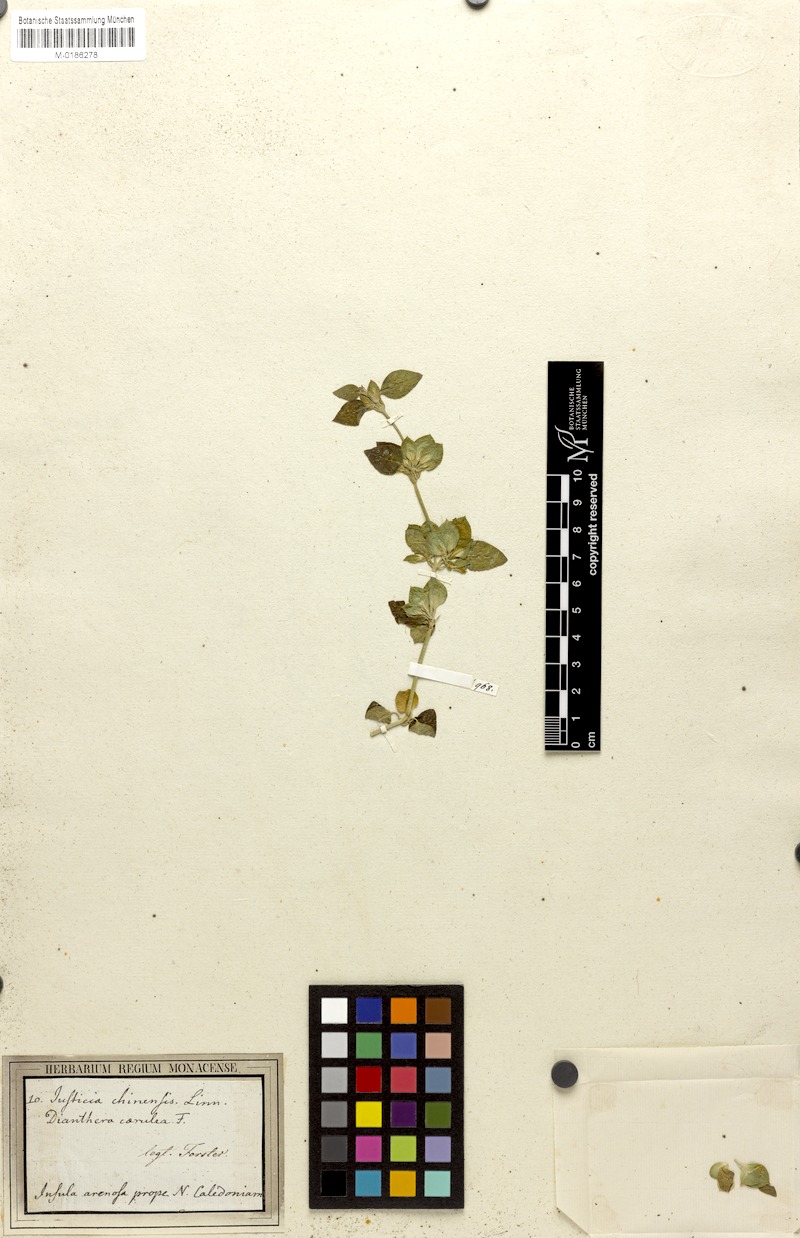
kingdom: Plantae
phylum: Tracheophyta
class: Magnoliopsida
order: Lamiales
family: Acanthaceae
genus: Dicliptera
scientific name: Dicliptera pubescens
